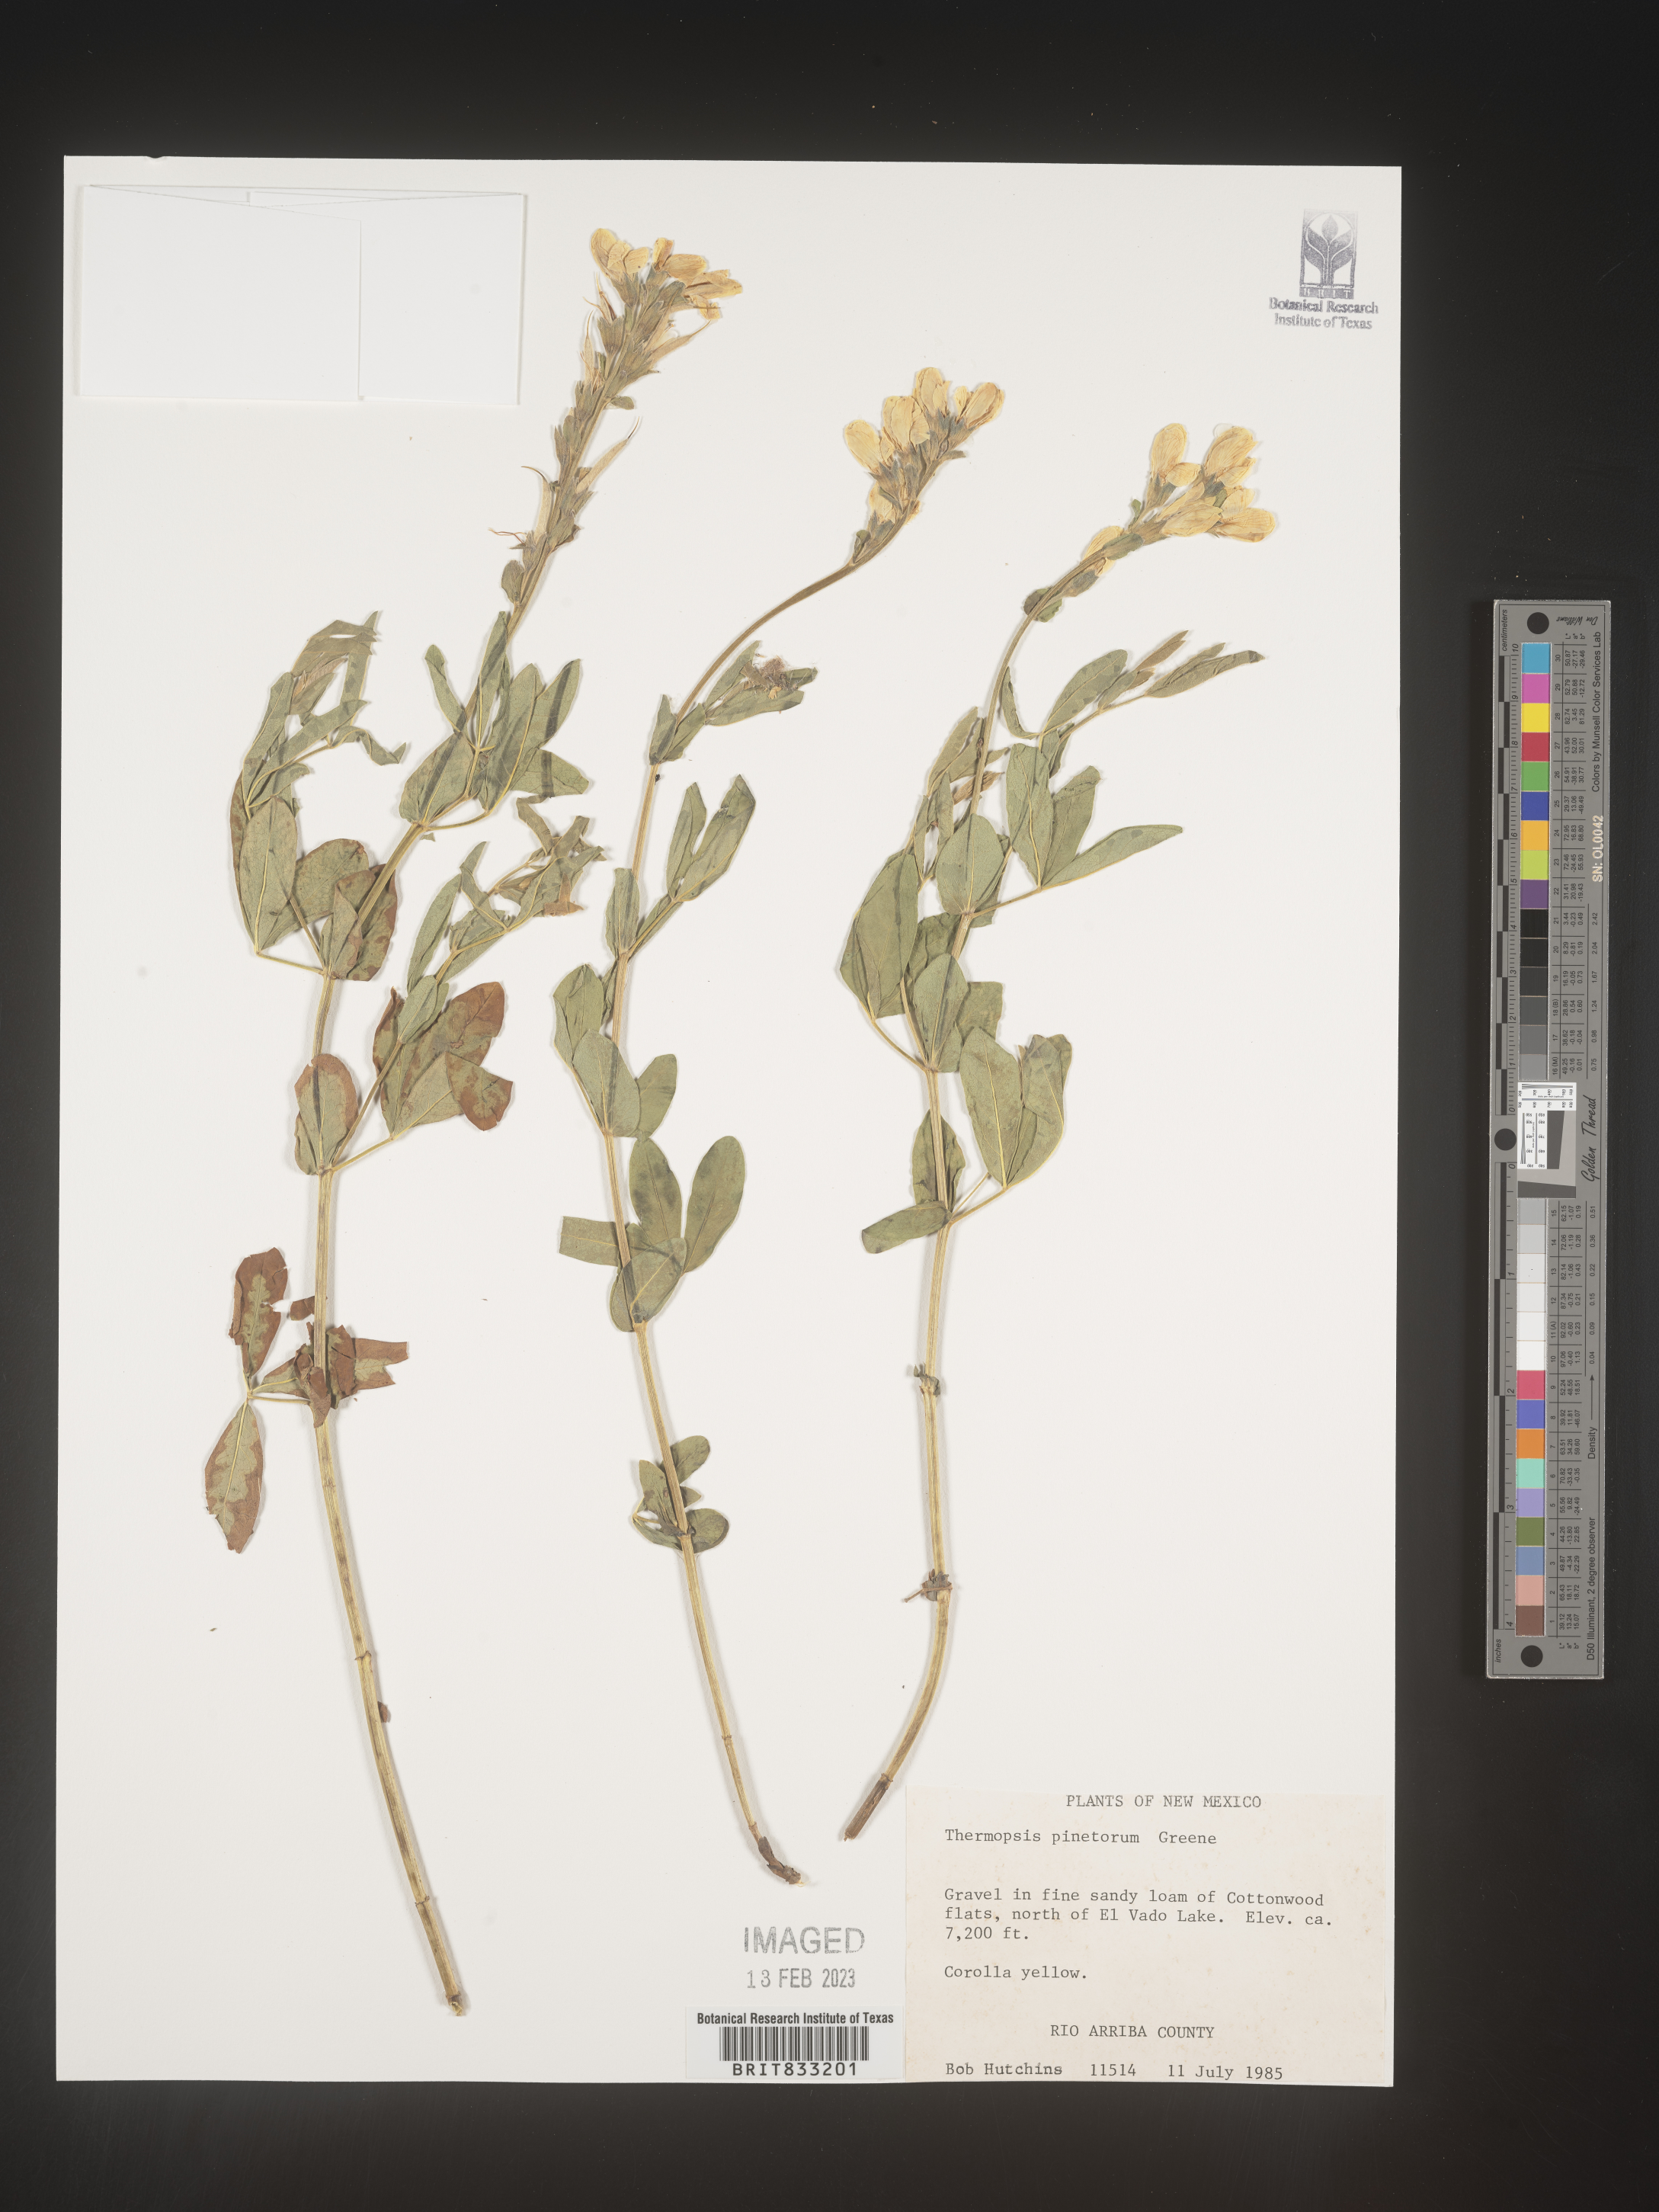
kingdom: Plantae
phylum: Tracheophyta
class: Magnoliopsida
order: Fabales
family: Fabaceae
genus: Thermopsis
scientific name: Thermopsis rhombifolia
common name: Circle-pod-pea
